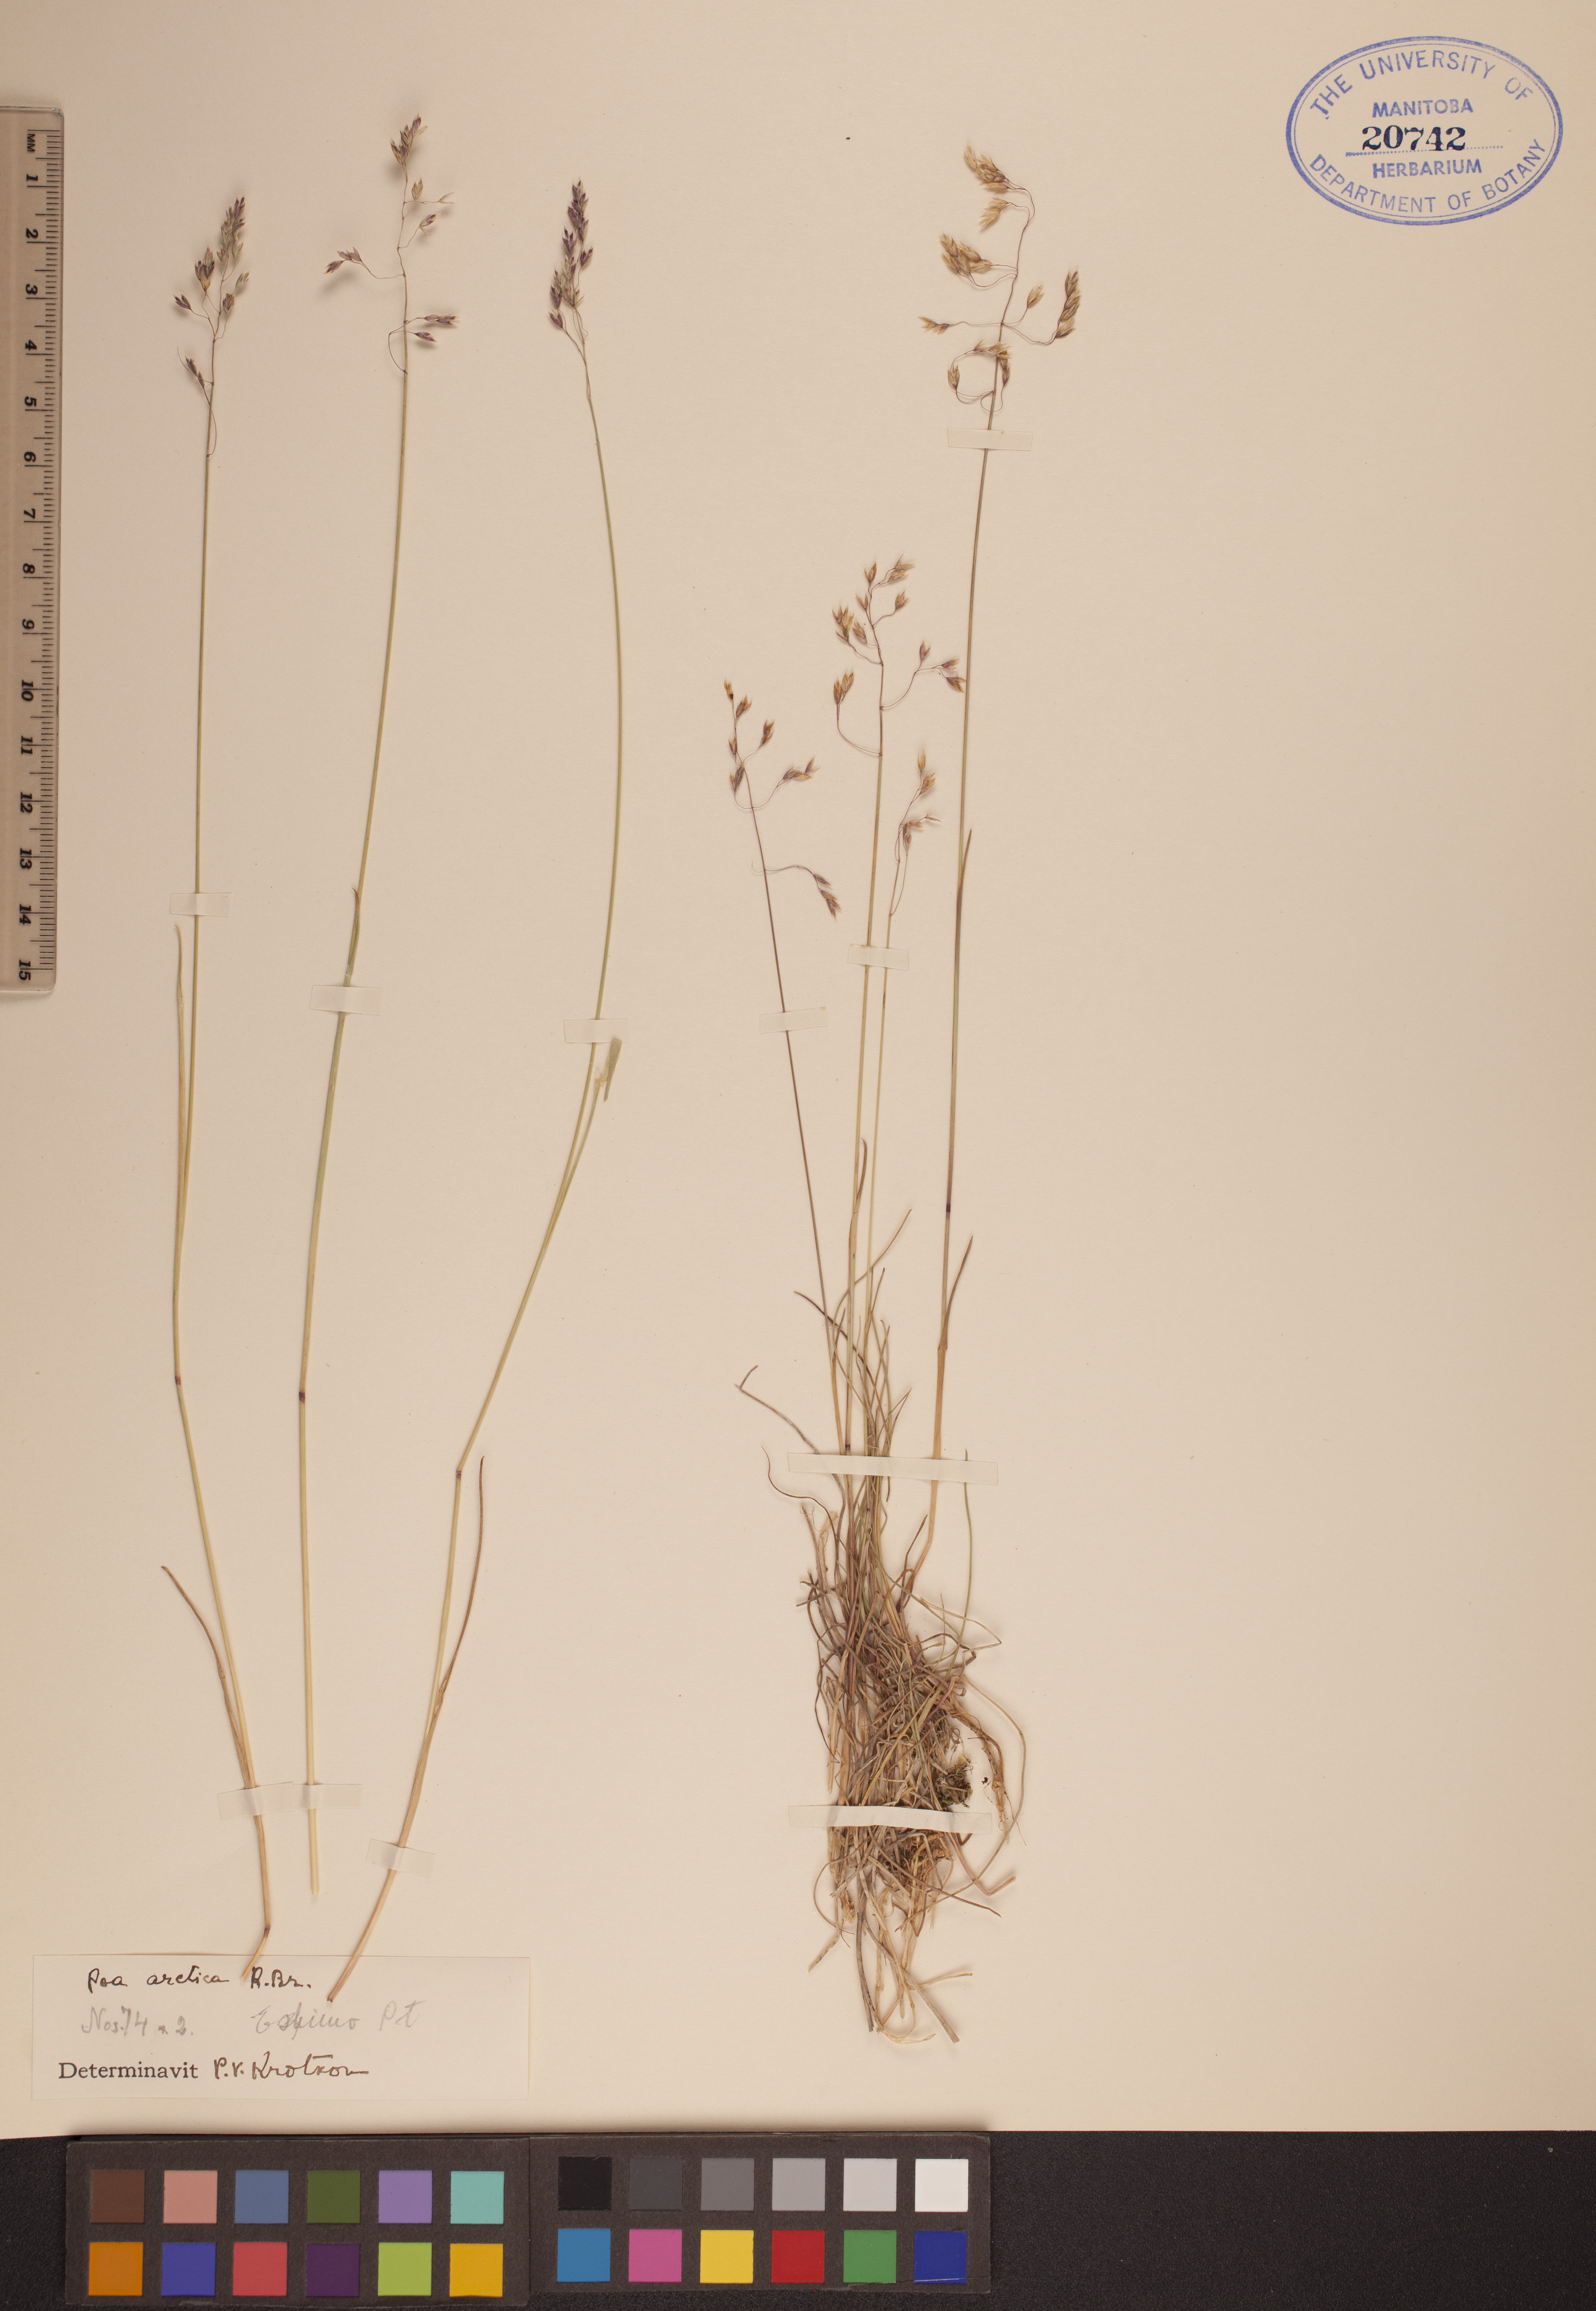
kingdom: Plantae
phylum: Tracheophyta
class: Liliopsida
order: Poales
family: Poaceae
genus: Poa
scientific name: Poa arctica
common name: Arctic bluegrass
